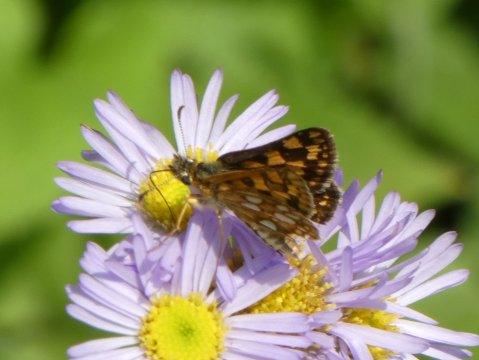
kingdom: Animalia
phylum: Arthropoda
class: Insecta
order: Lepidoptera
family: Hesperiidae
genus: Carterocephalus
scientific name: Carterocephalus palaemon
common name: Chequered Skipper
